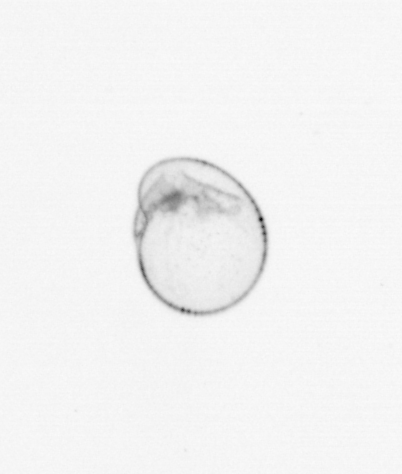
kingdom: Chromista
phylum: Myzozoa
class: Dinophyceae
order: Noctilucales
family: Noctilucaceae
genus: Noctiluca
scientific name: Noctiluca scintillans
